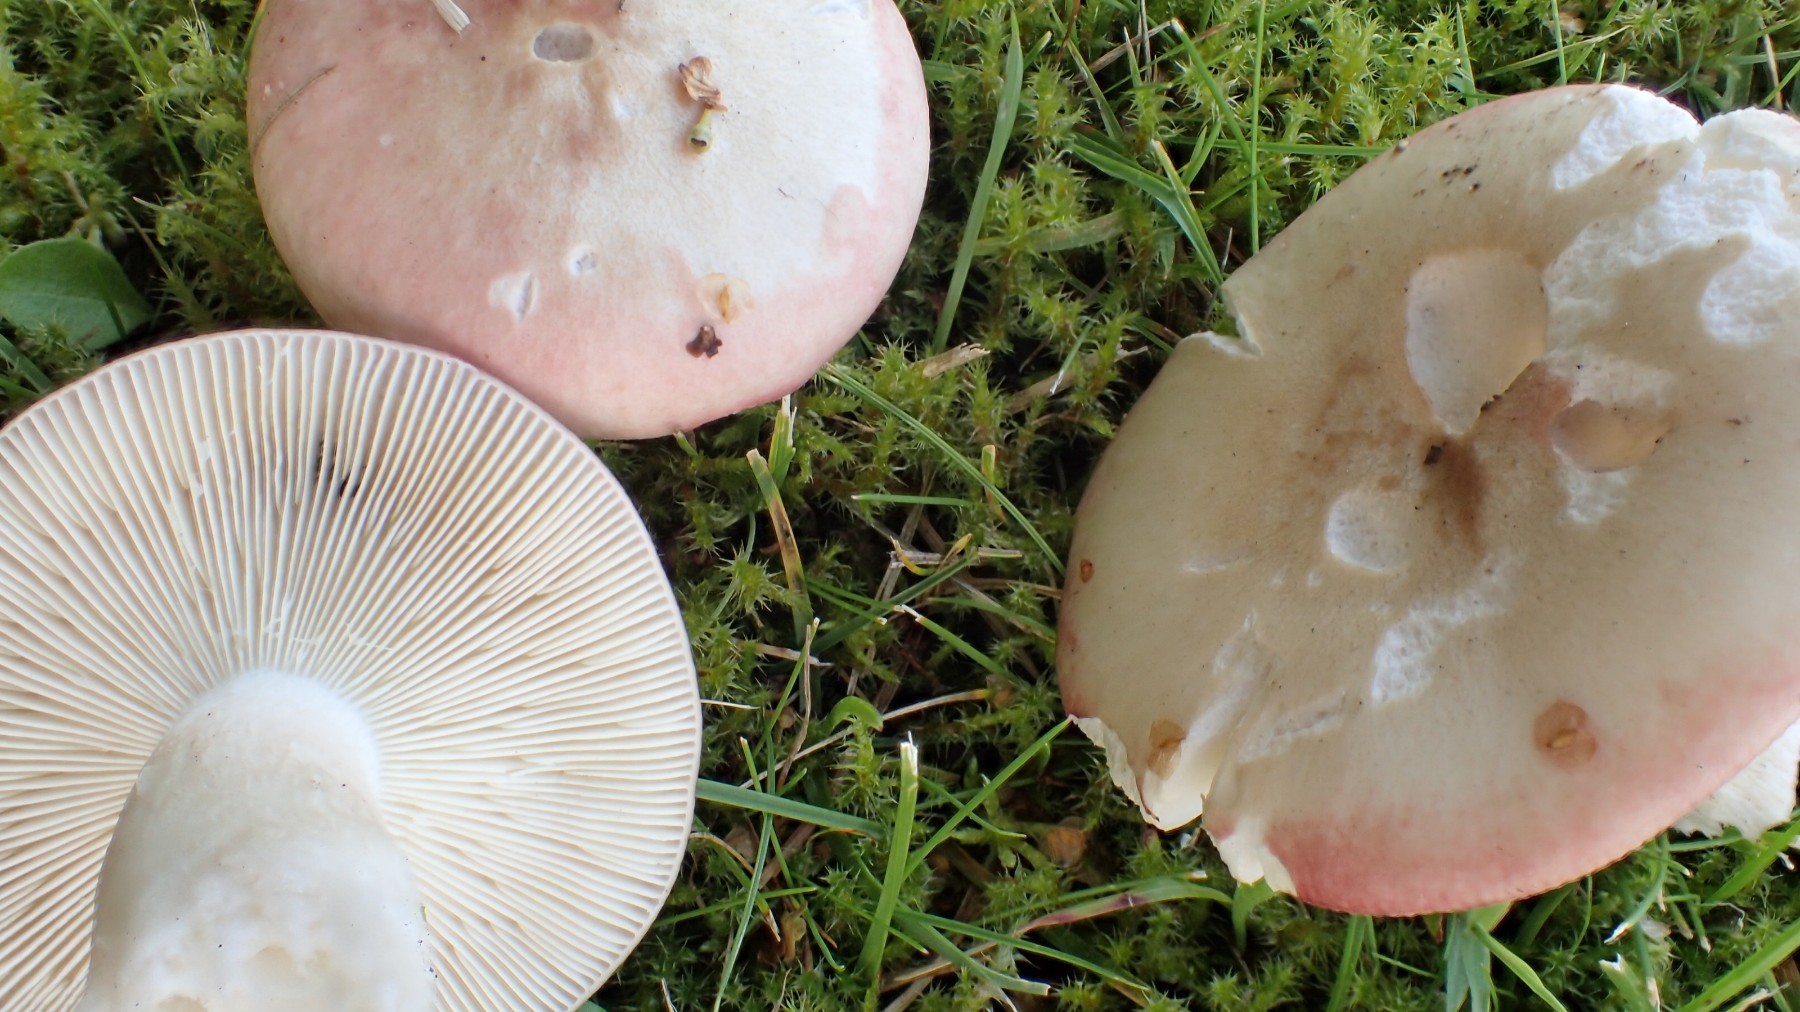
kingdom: Fungi
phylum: Basidiomycota
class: Agaricomycetes
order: Russulales
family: Russulaceae
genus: Russula
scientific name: Russula depallens
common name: falmende skørhat
